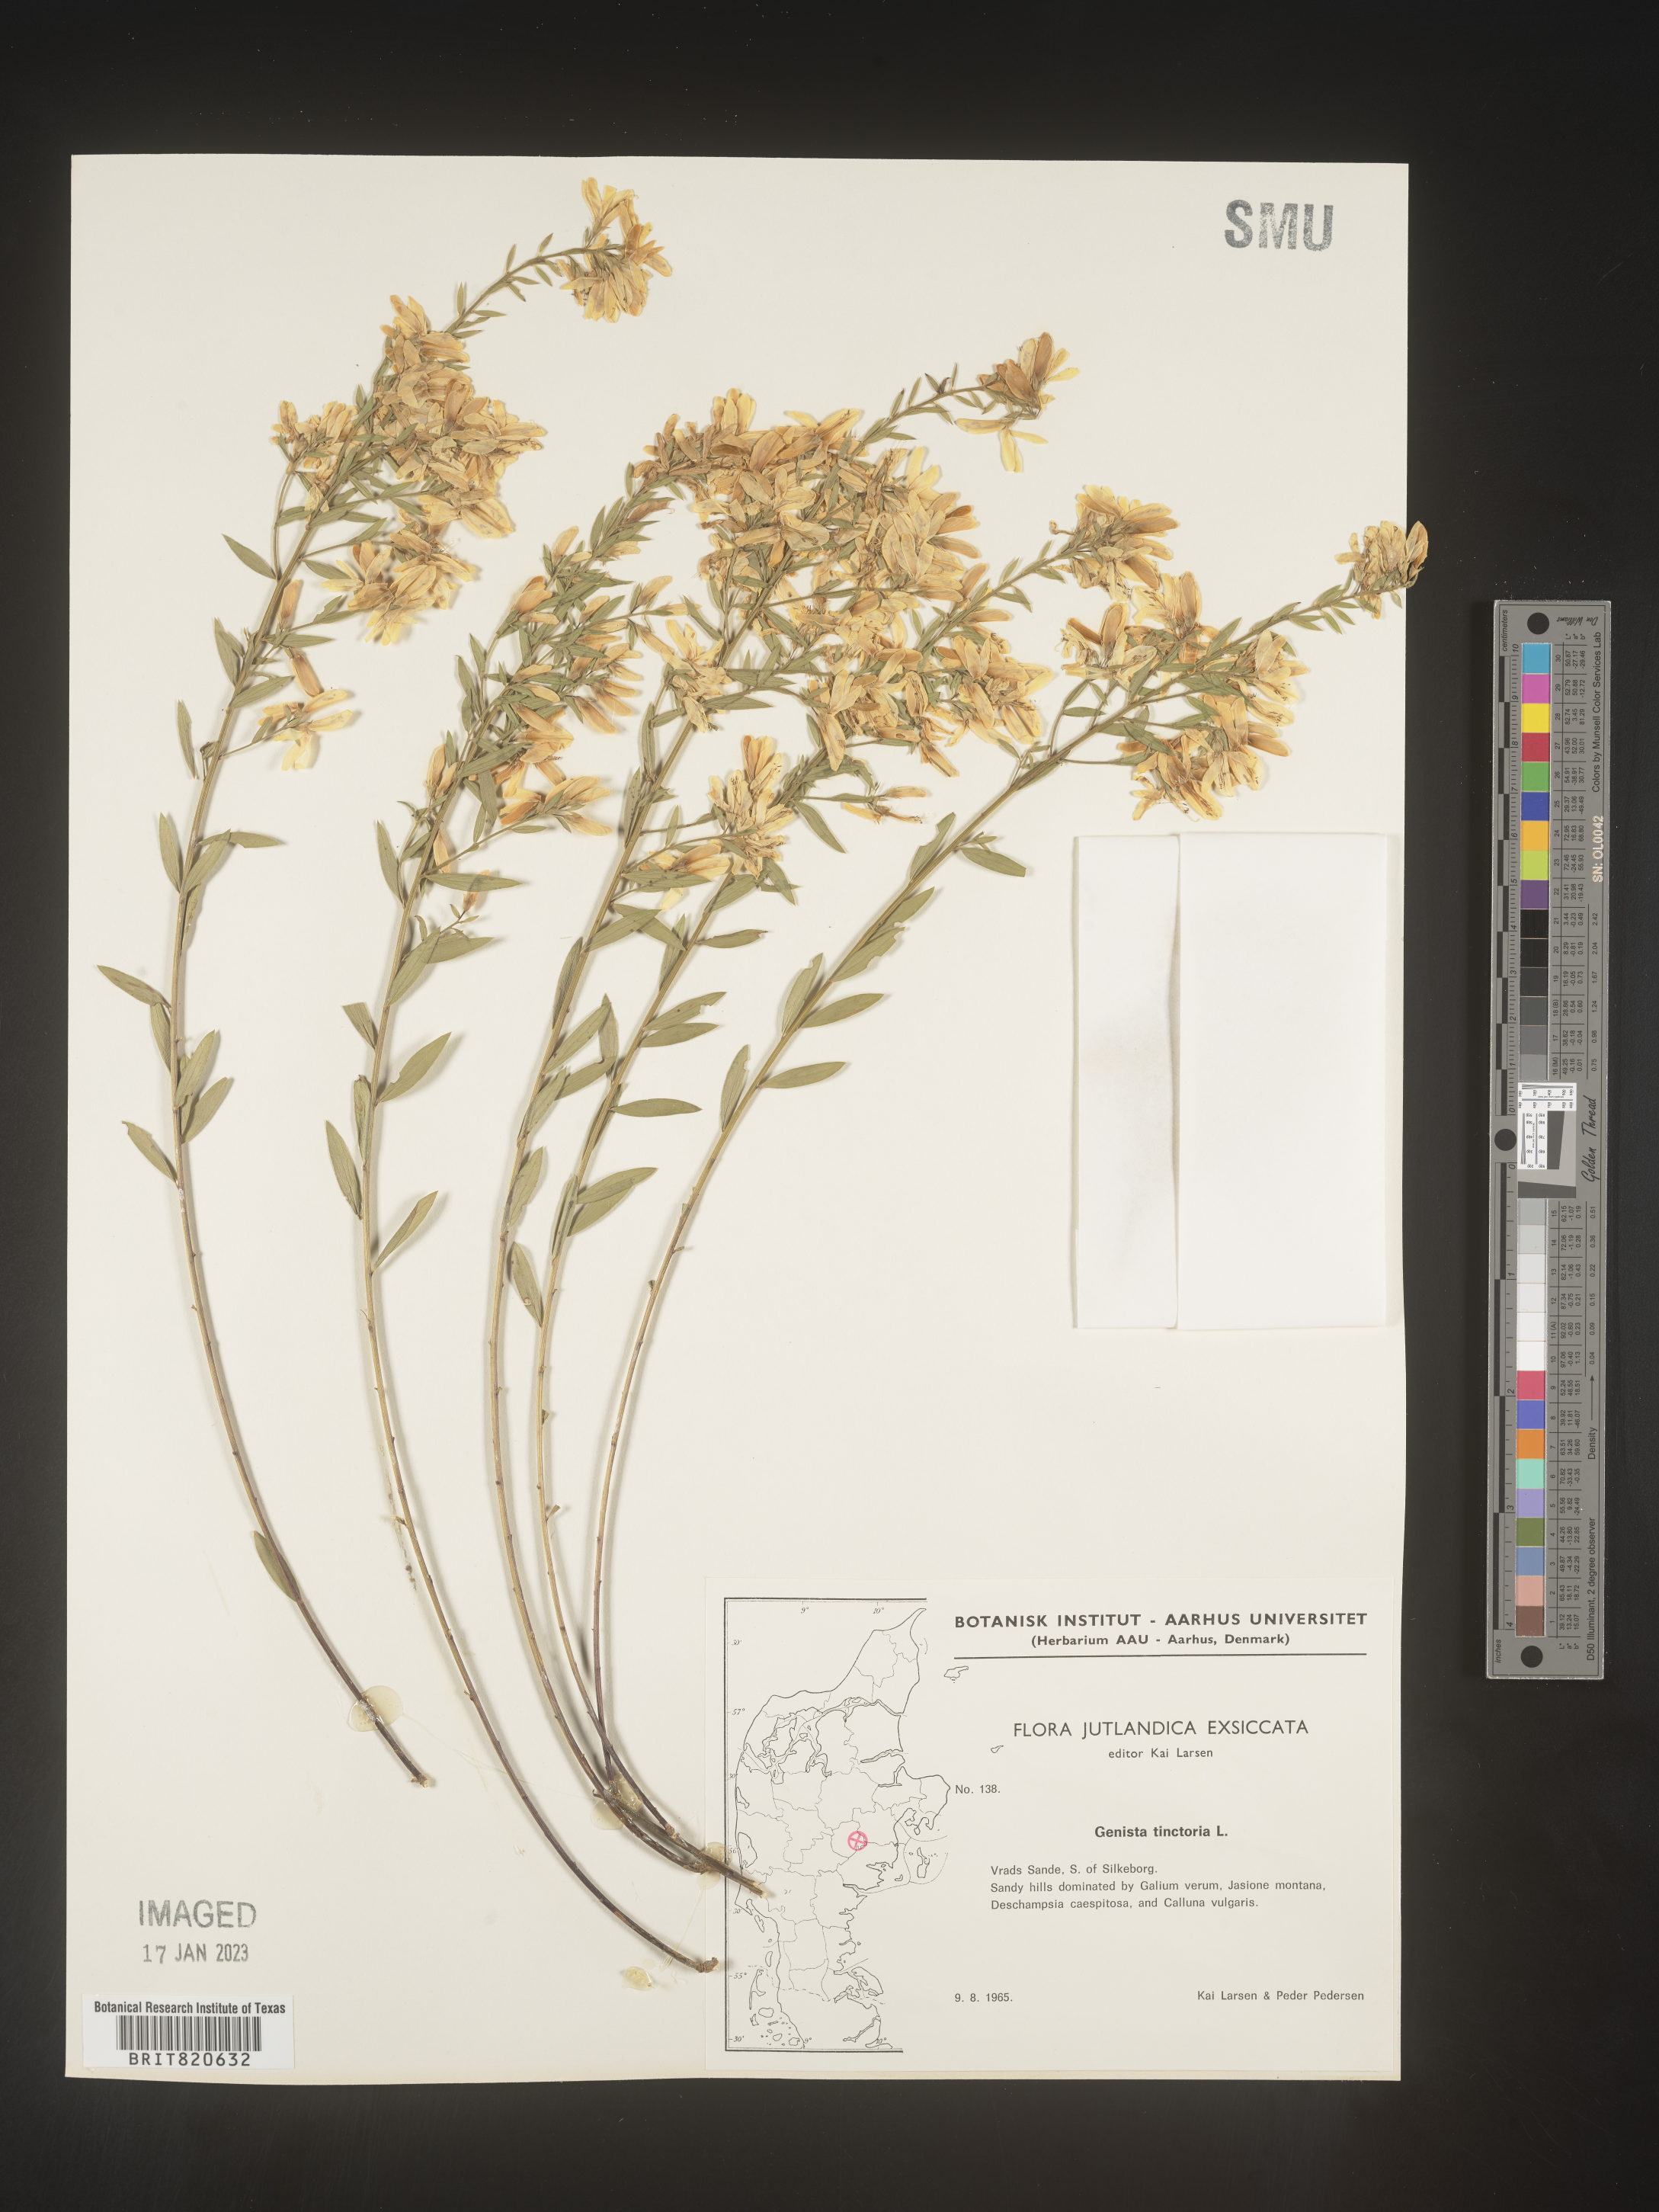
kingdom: Plantae
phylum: Tracheophyta
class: Magnoliopsida
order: Fabales
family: Fabaceae
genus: Genista
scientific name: Genista tinctoria
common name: Dyer's greenweed
